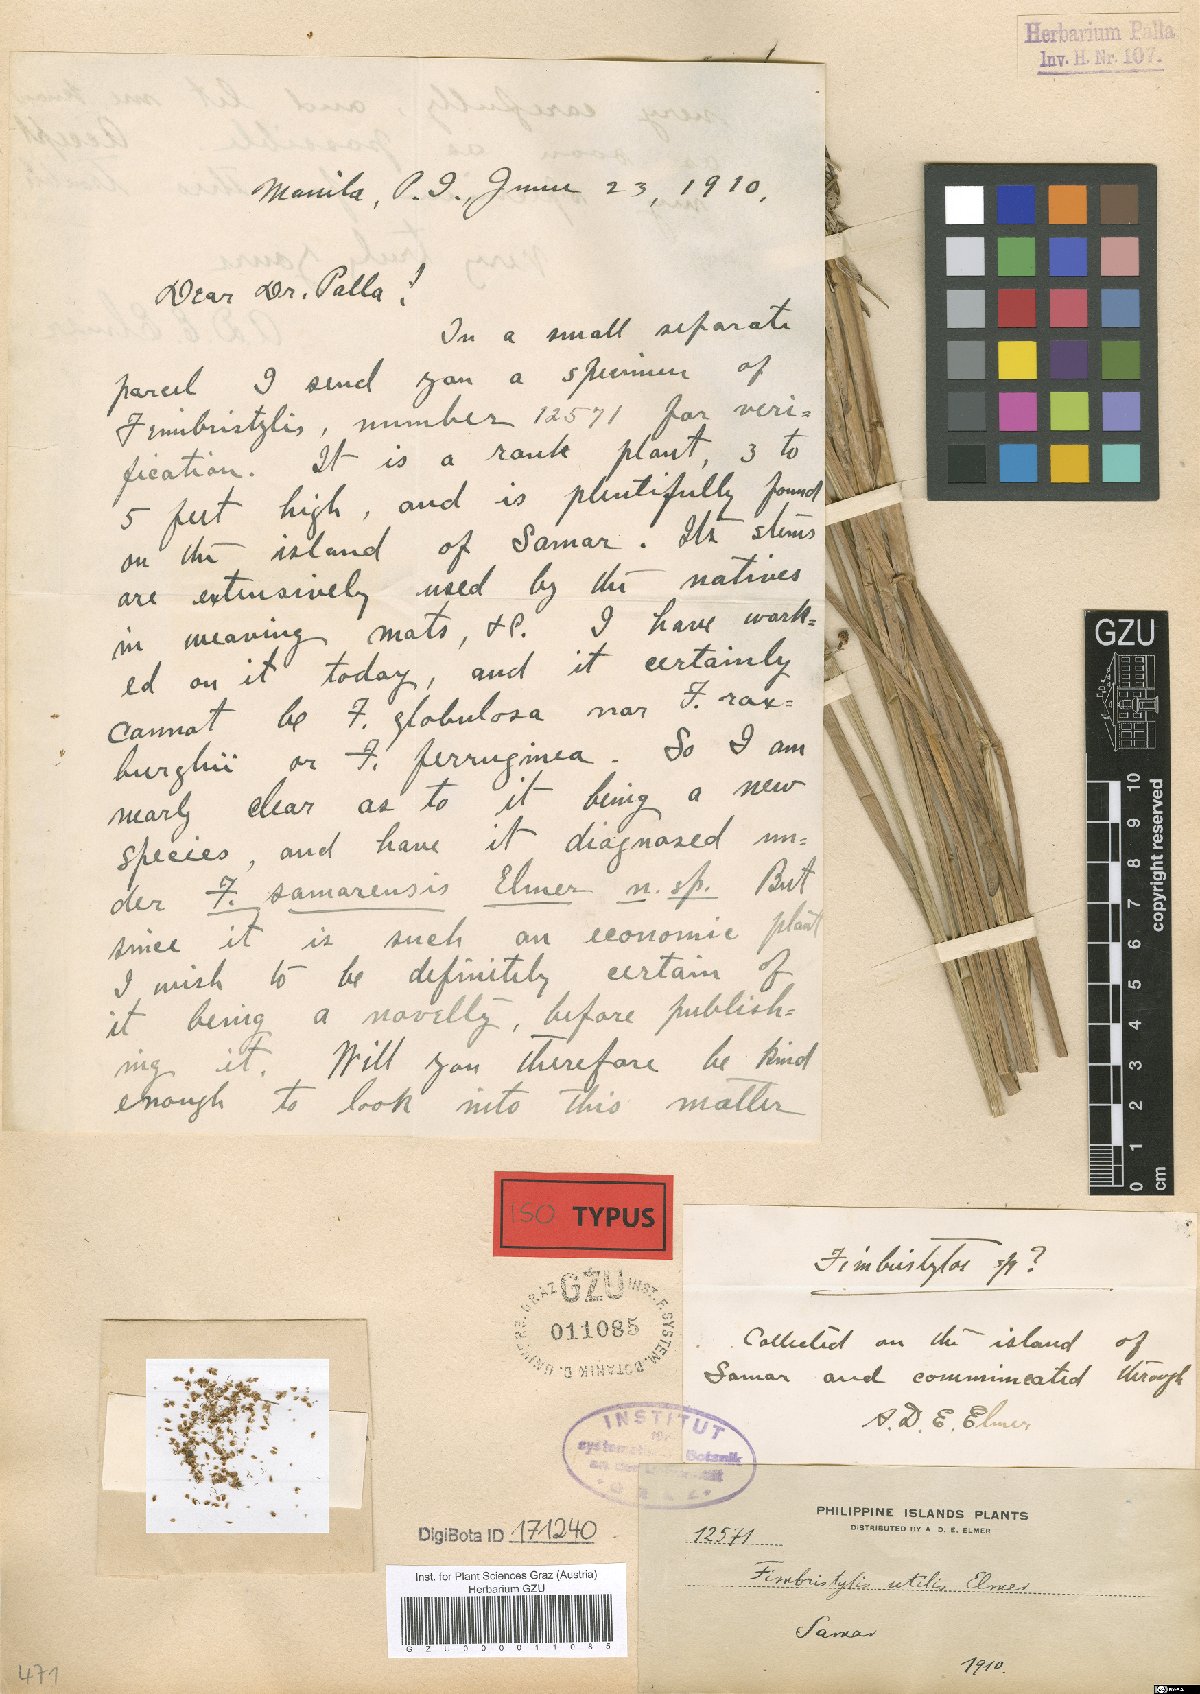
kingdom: Plantae
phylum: Tracheophyta
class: Liliopsida
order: Poales
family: Cyperaceae
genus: Fimbristylis
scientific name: Fimbristylis umbellaris
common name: Globular fimbristylis
